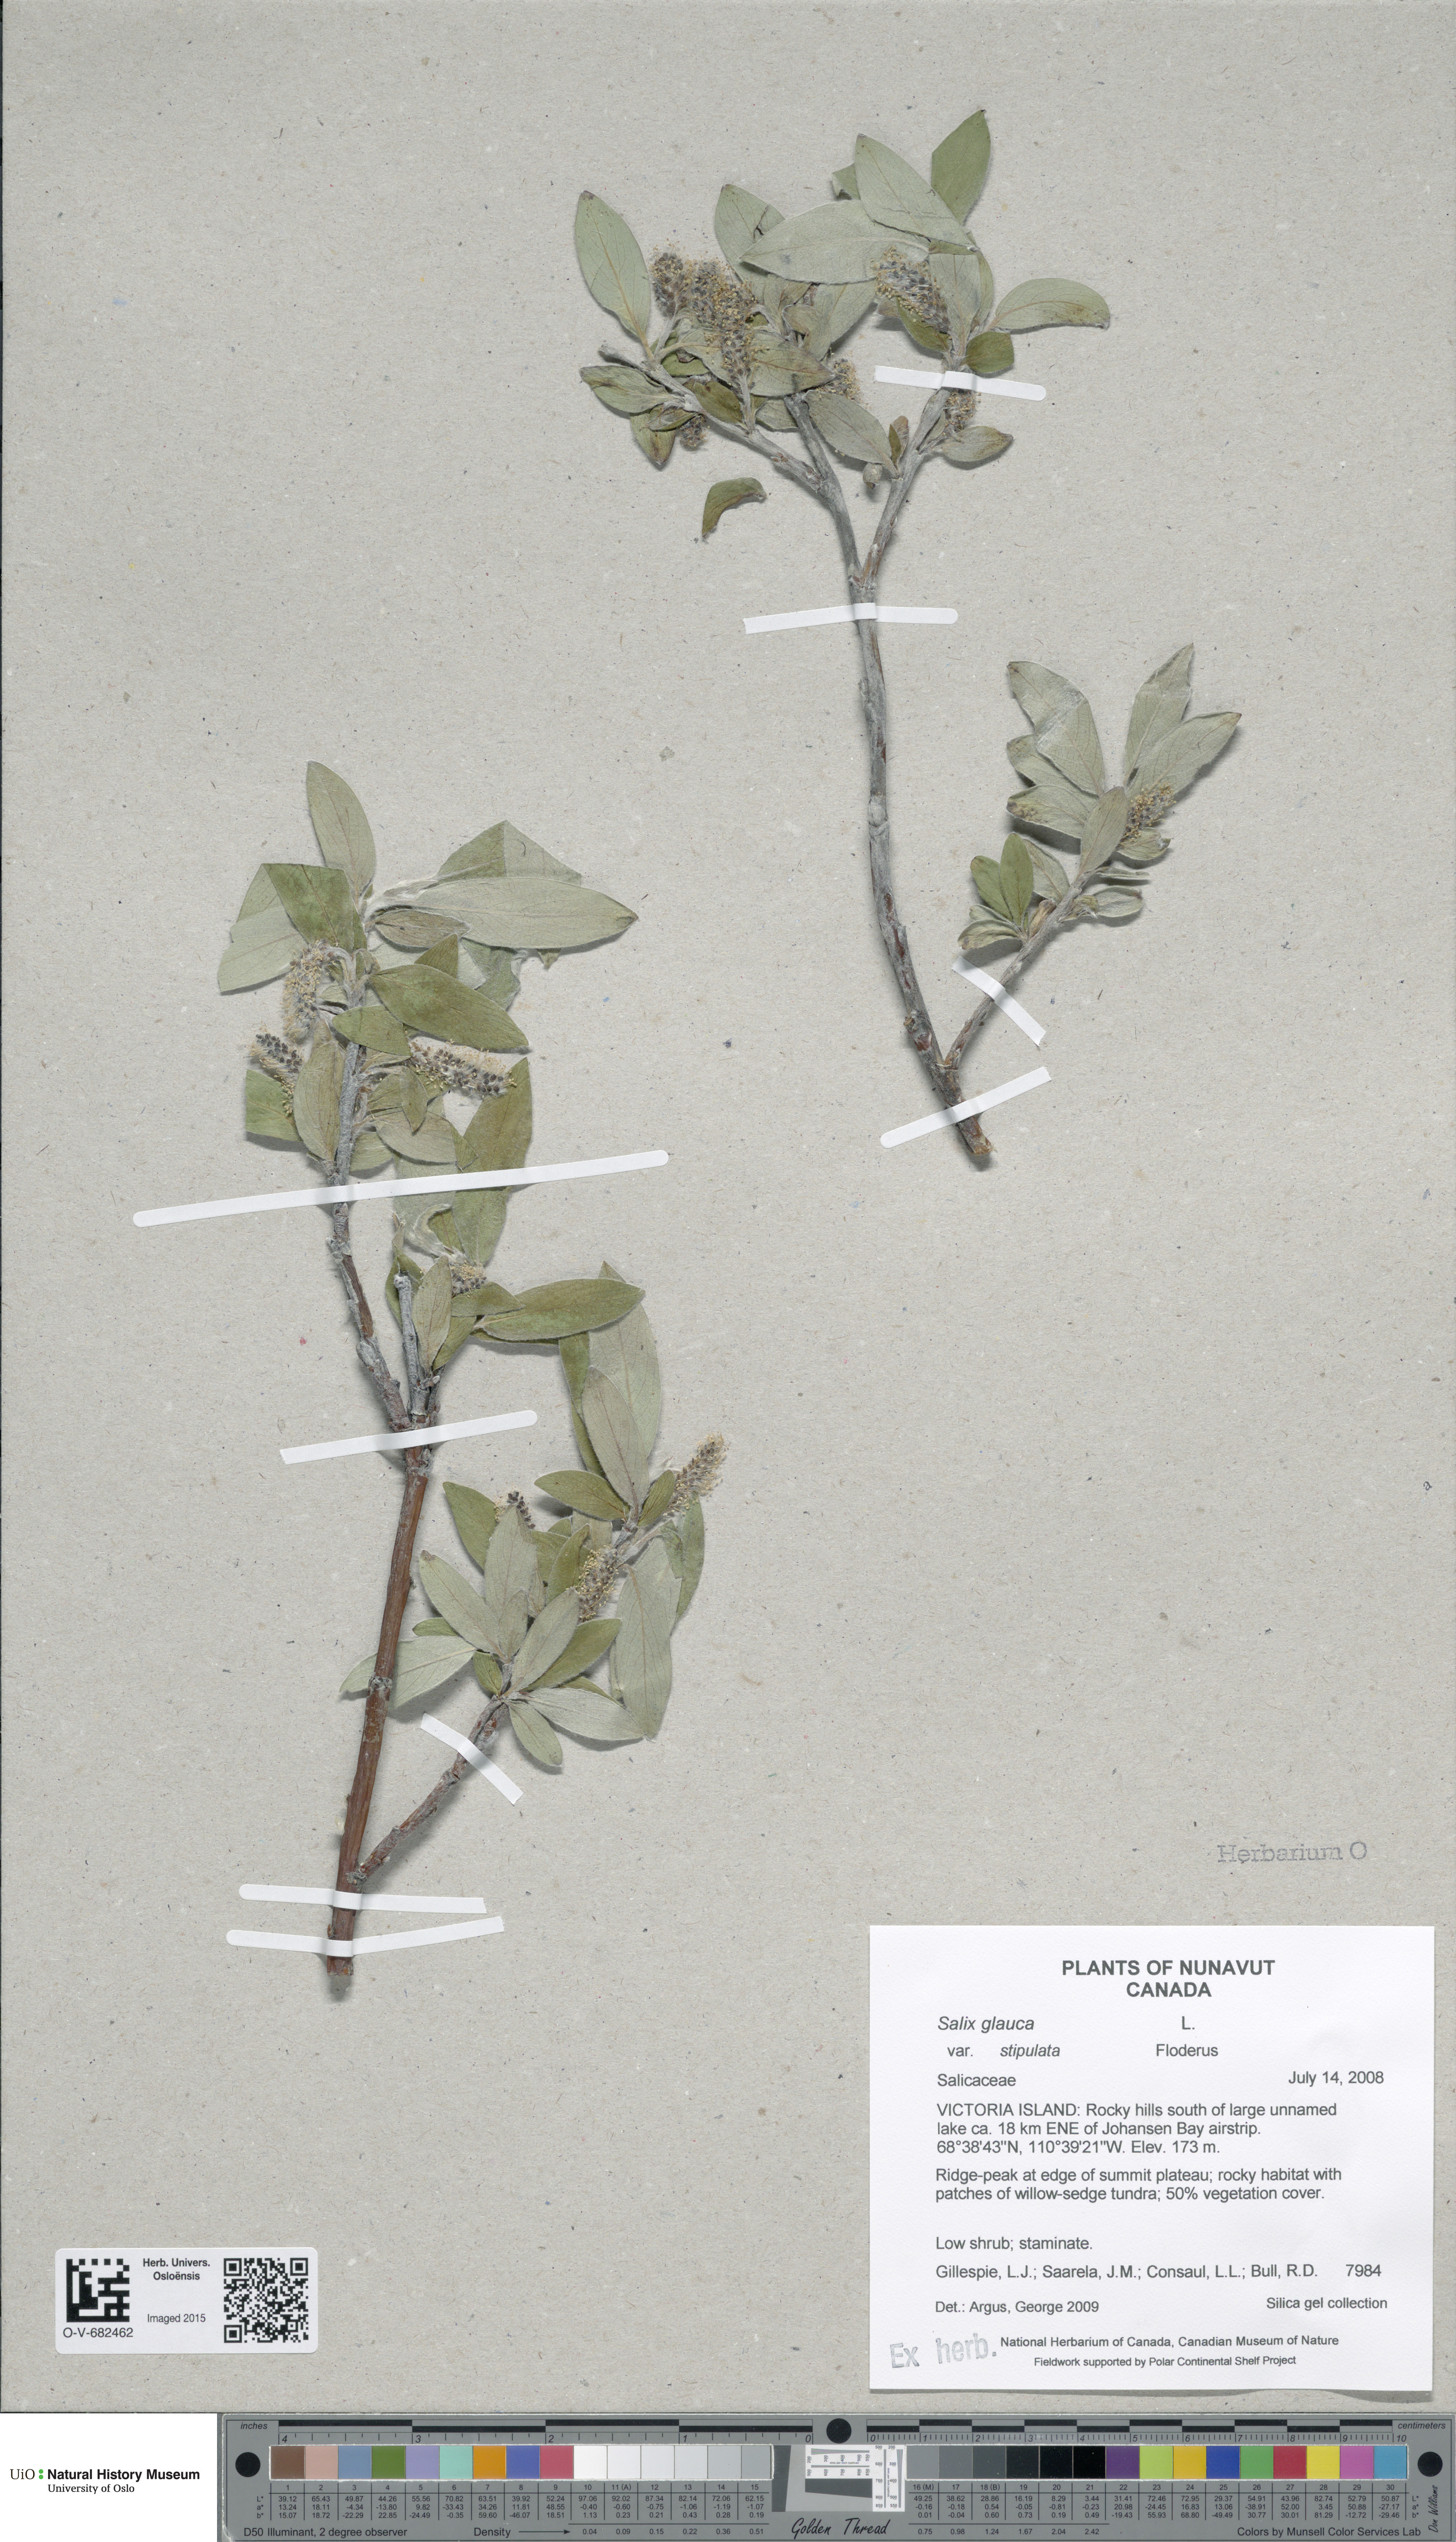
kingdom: Plantae
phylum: Tracheophyta
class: Magnoliopsida
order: Malpighiales
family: Salicaceae
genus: Salix
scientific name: Salix glauca
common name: Glaucous willow
